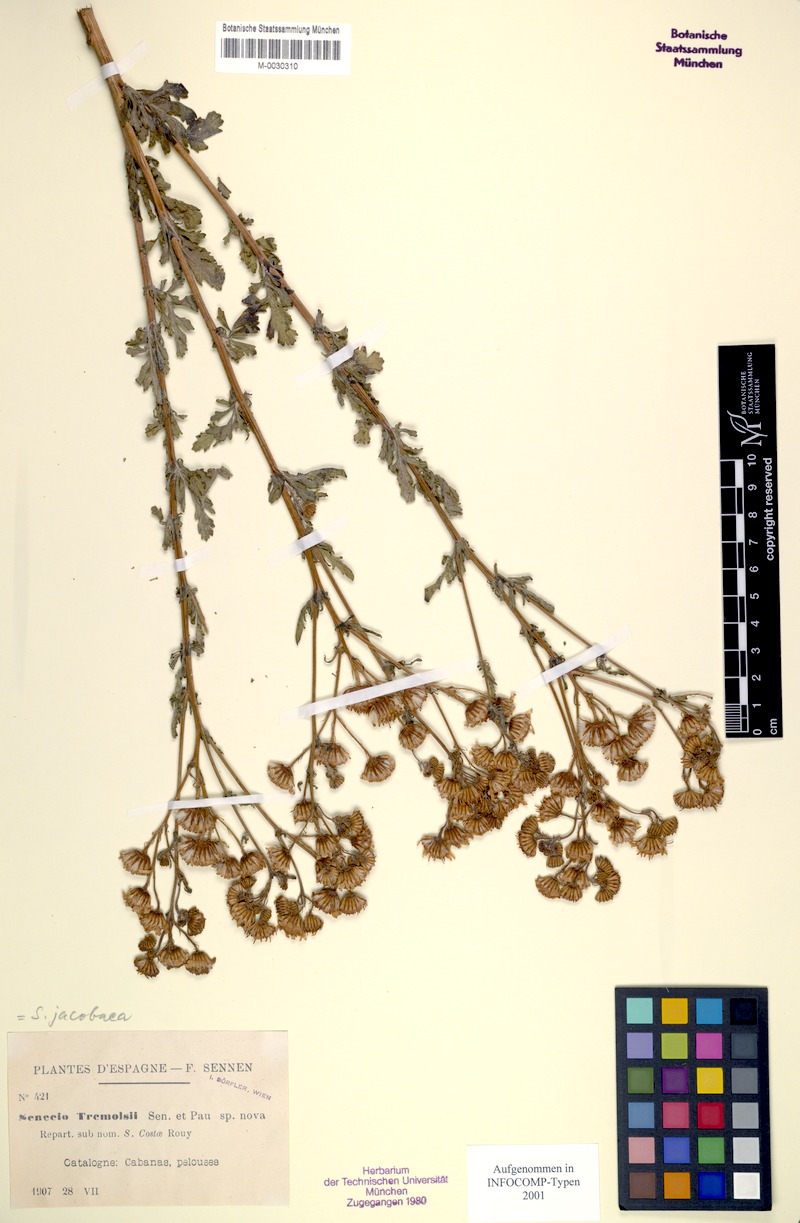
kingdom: Plantae
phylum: Tracheophyta
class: Magnoliopsida
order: Asterales
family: Asteraceae
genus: Jacobaea
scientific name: Jacobaea vulgaris
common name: Stinking willie
